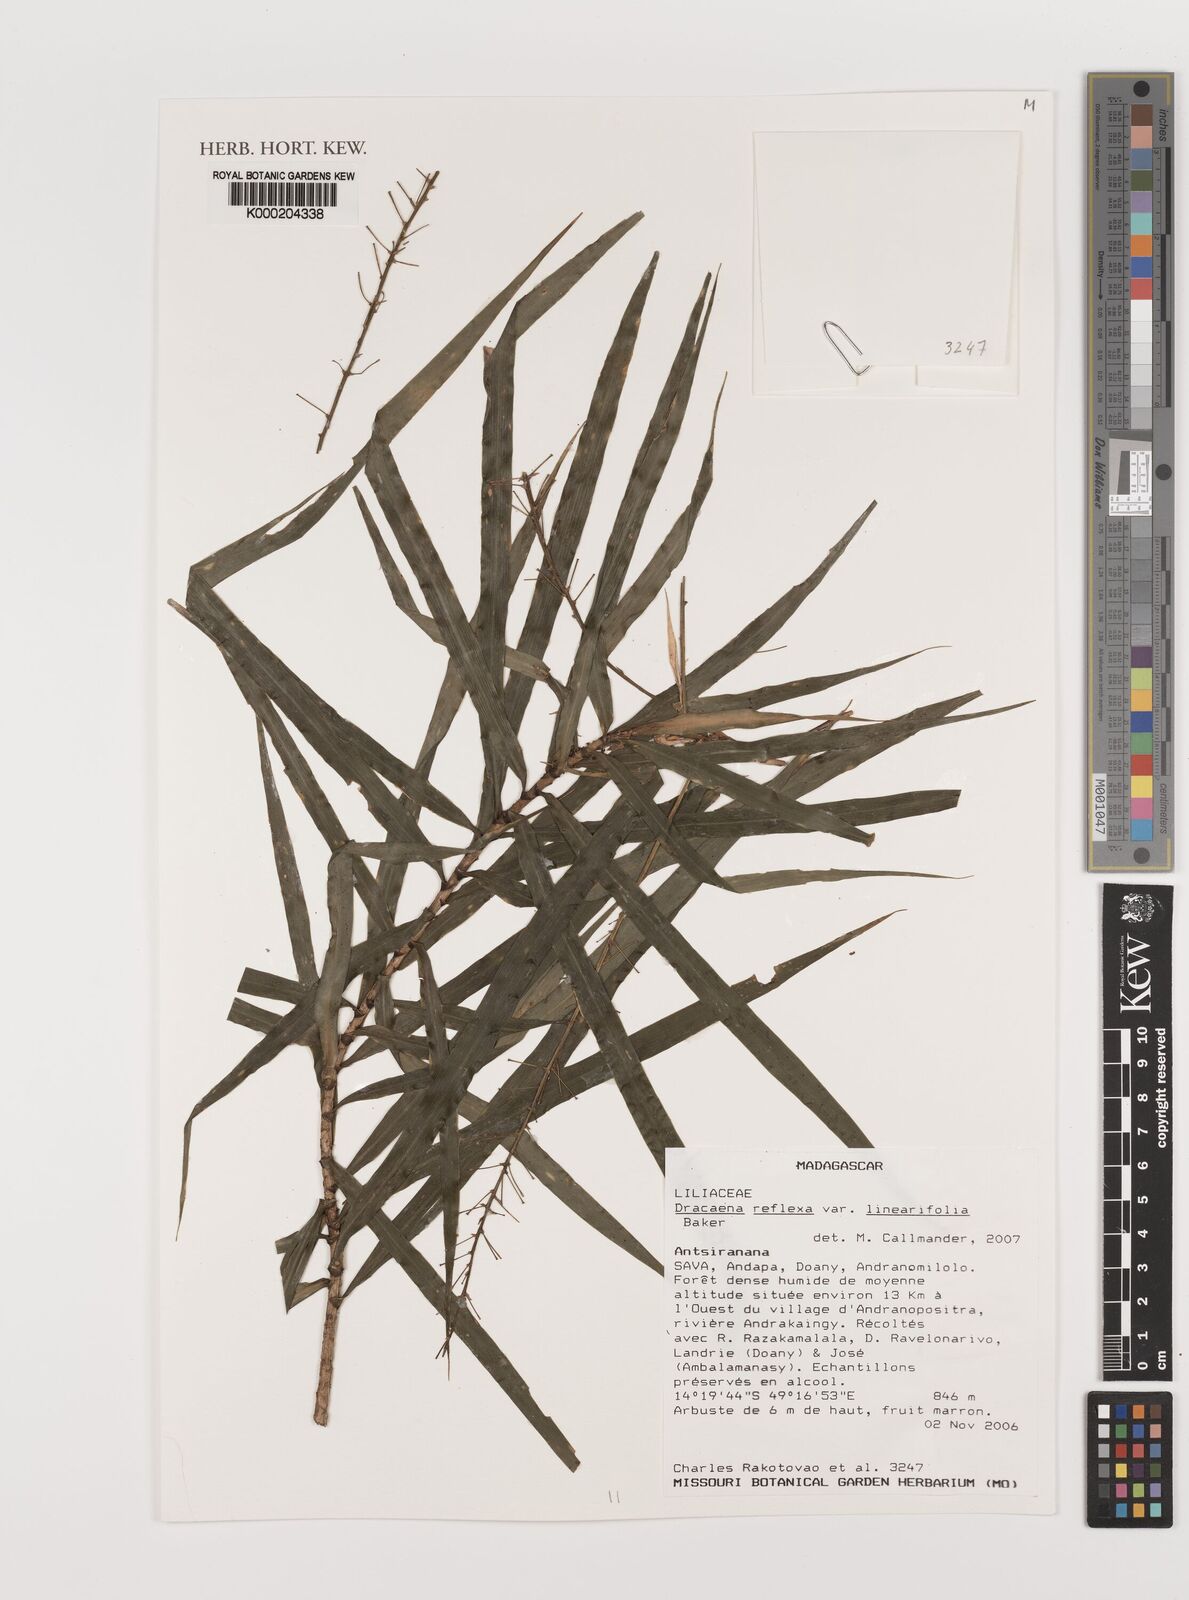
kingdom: Plantae
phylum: Tracheophyta
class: Liliopsida
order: Asparagales
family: Asparagaceae
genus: Dracaena
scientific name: Dracaena
